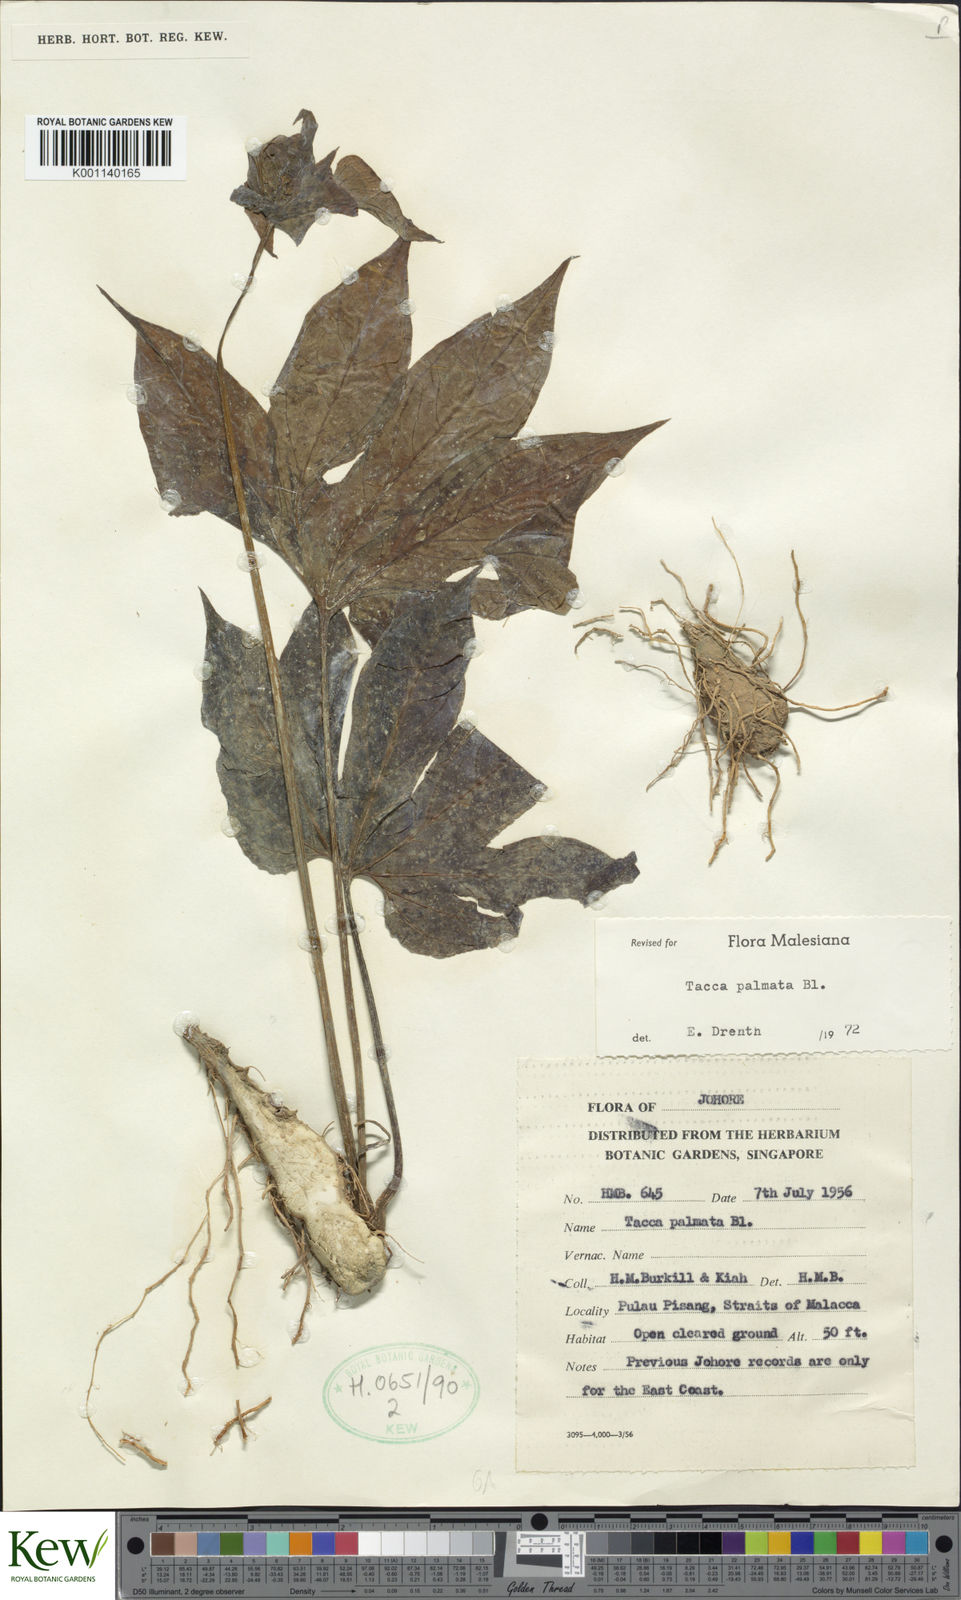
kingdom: Plantae
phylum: Tracheophyta
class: Liliopsida
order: Dioscoreales
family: Dioscoreaceae
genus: Tacca
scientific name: Tacca palmata
